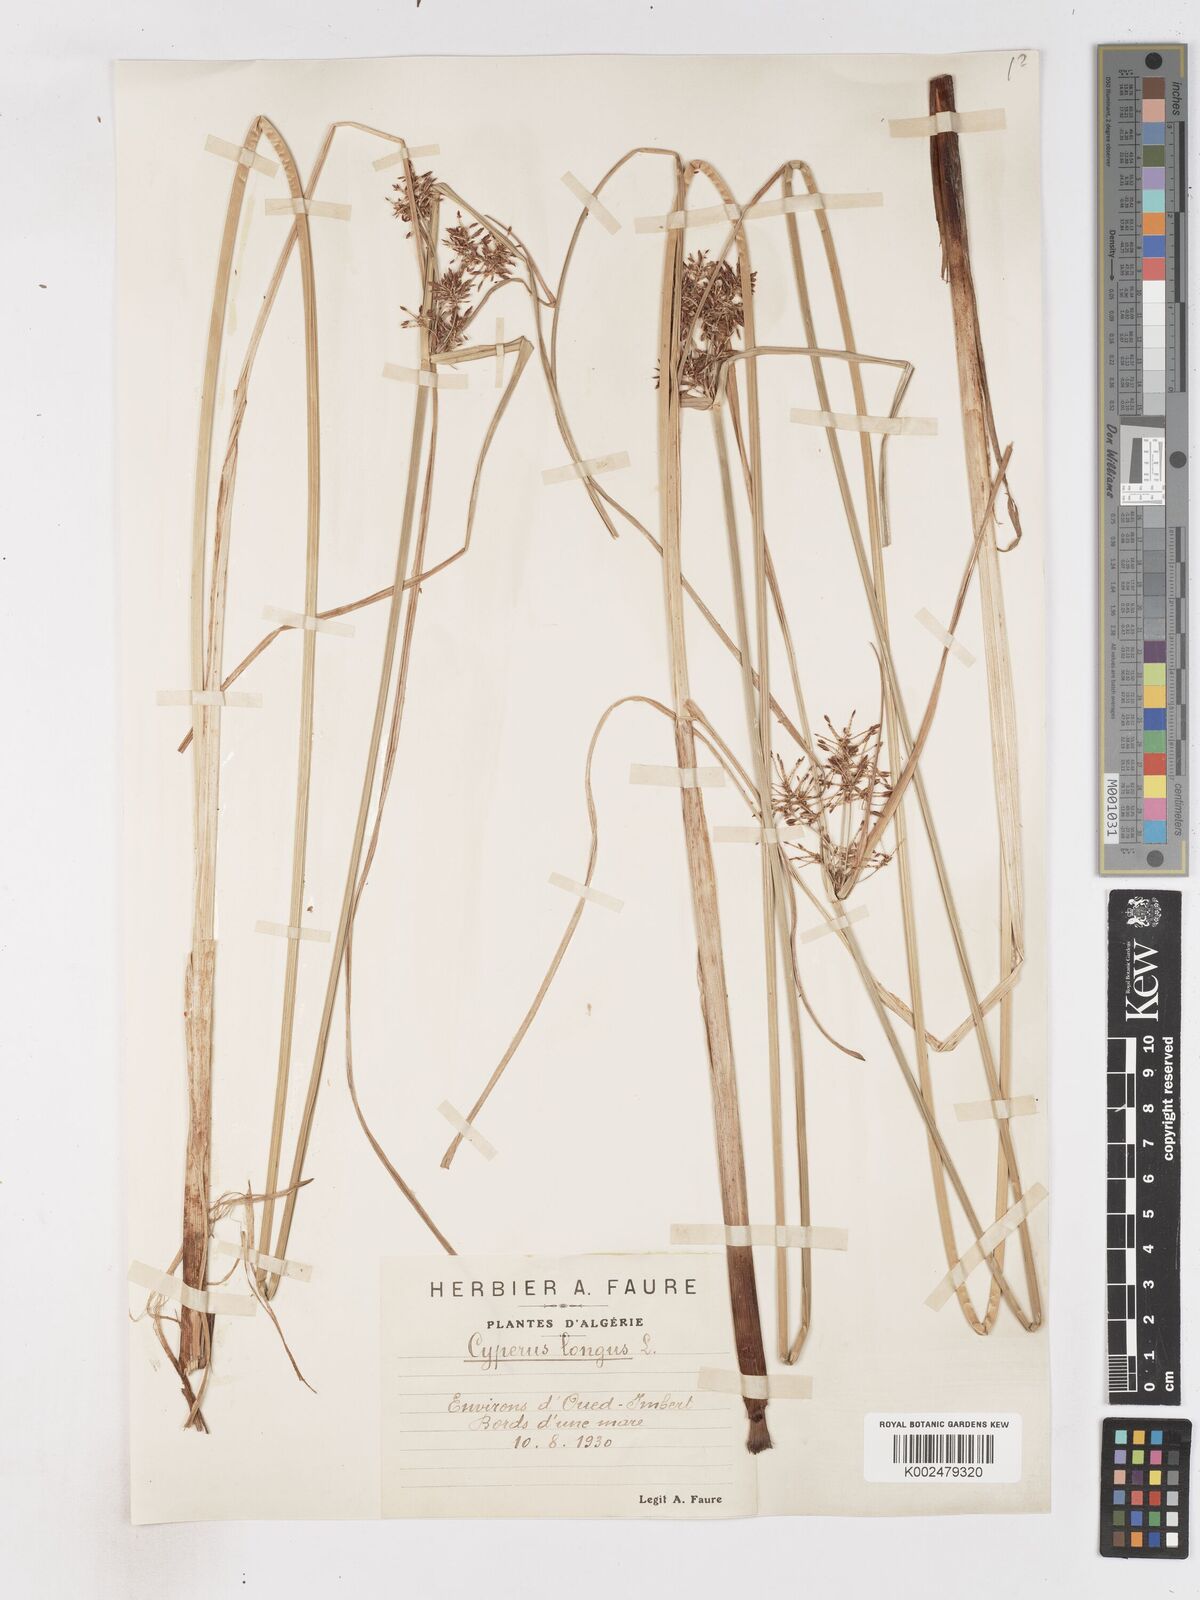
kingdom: Plantae
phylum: Tracheophyta
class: Liliopsida
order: Poales
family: Cyperaceae
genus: Cyperus
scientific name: Cyperus longus
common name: Galingale
